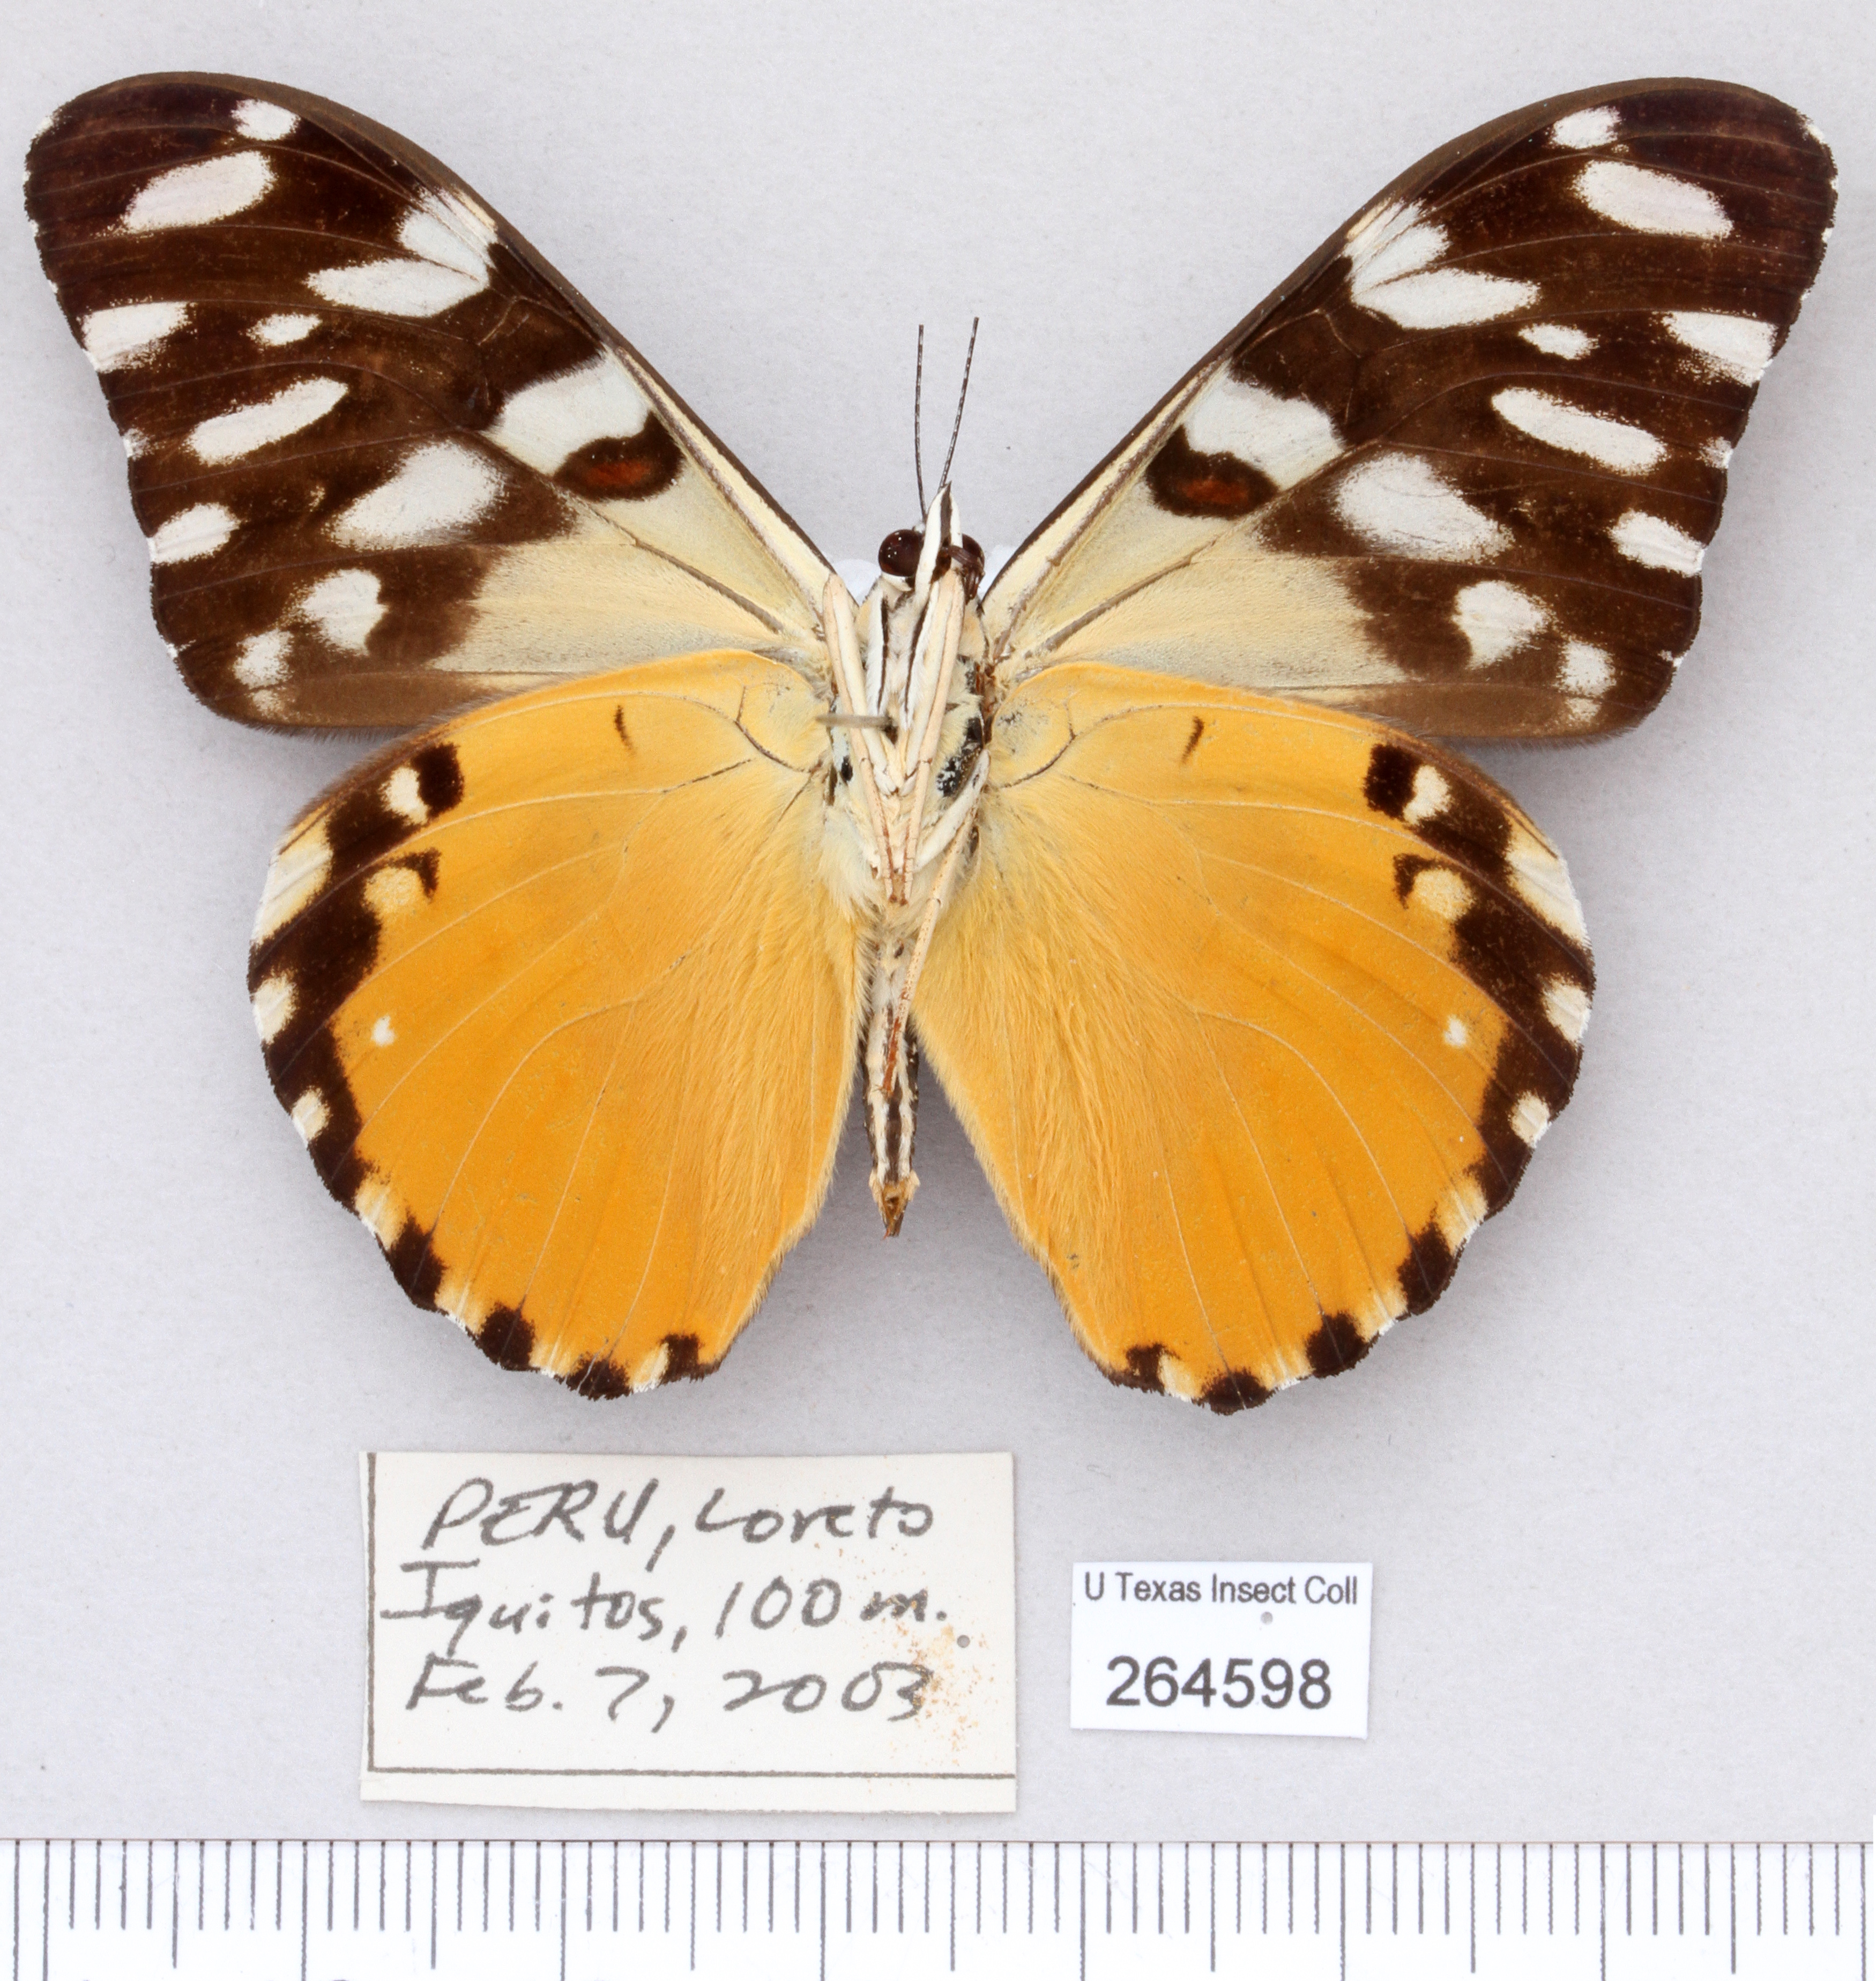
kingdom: Animalia
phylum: Arthropoda
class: Insecta
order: Lepidoptera
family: Nymphalidae
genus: Hamadryas
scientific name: Hamadryas alicia
